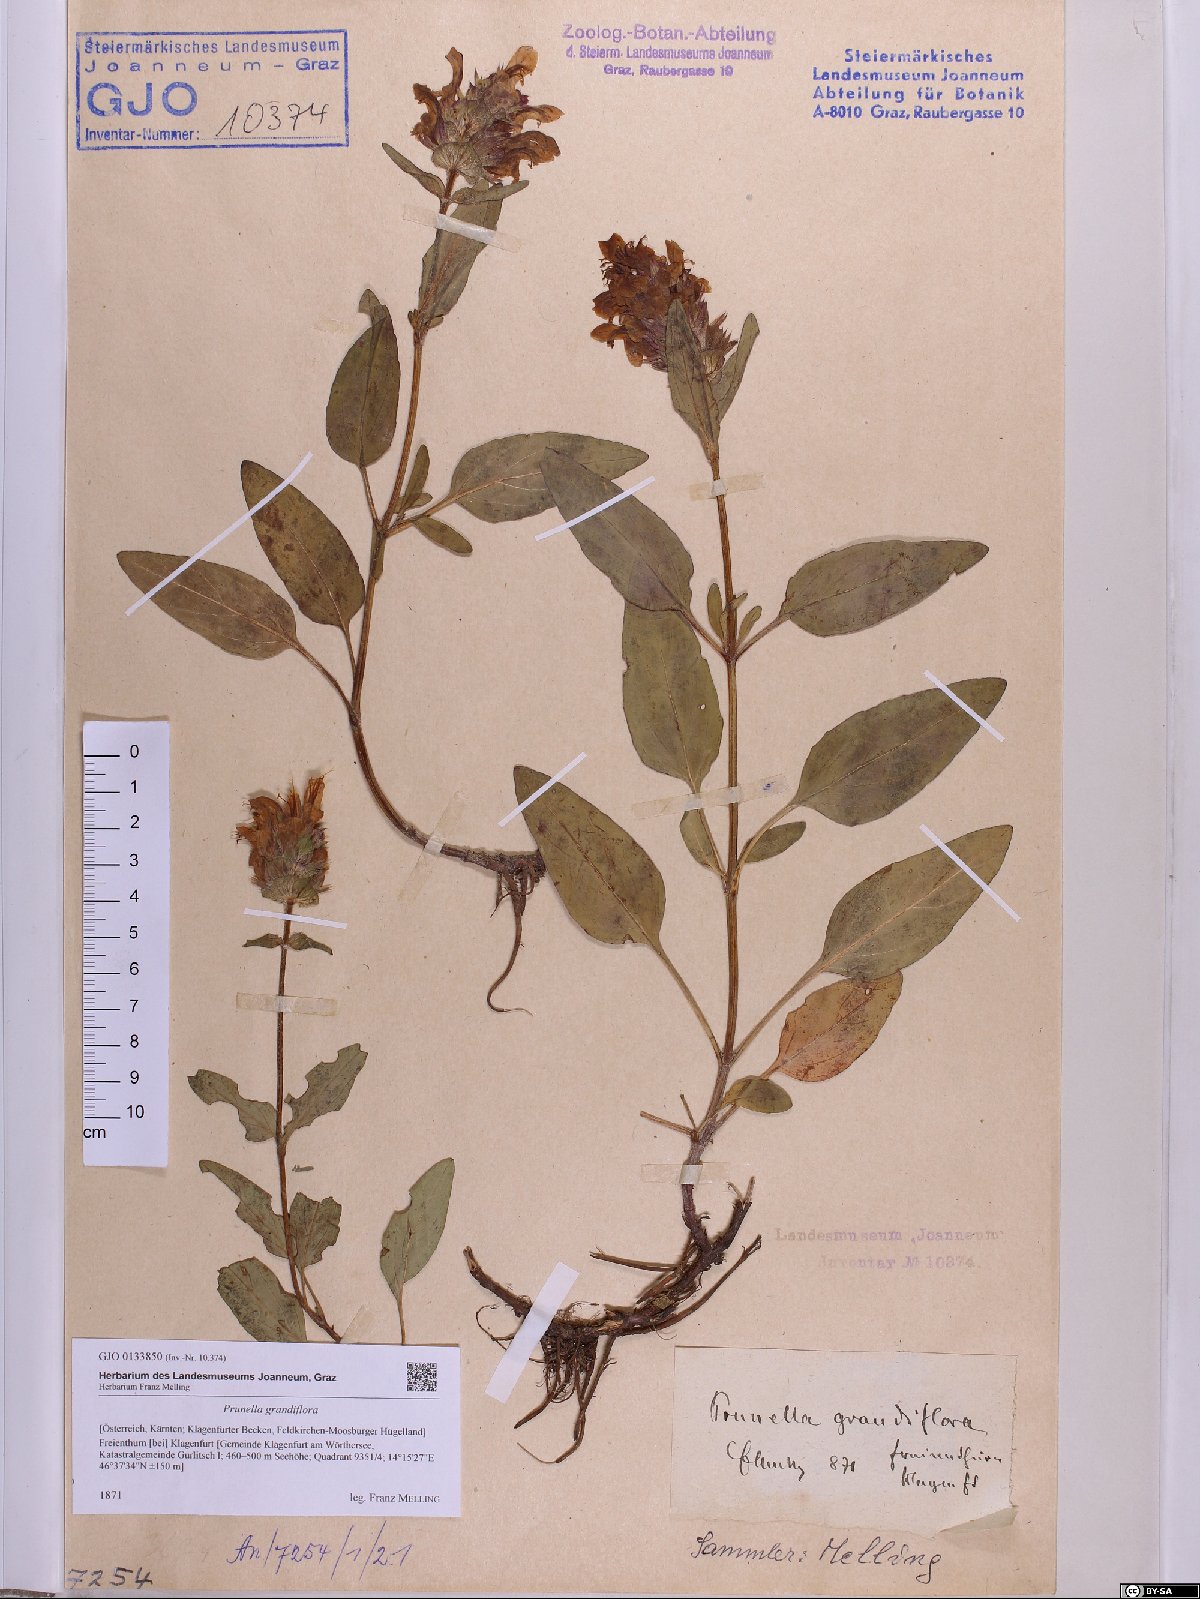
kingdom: Plantae
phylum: Tracheophyta
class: Magnoliopsida
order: Lamiales
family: Lamiaceae
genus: Prunella
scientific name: Prunella grandiflora
